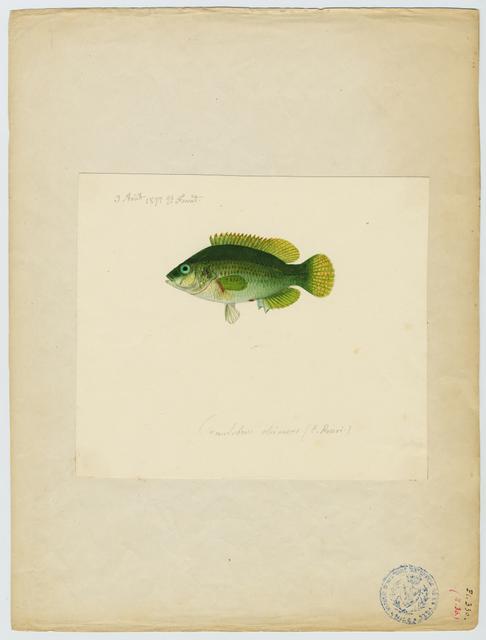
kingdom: Animalia
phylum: Chordata
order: Perciformes
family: Labridae
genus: Symphodus
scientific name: Symphodus roissali
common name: Five-spotted wrasse
